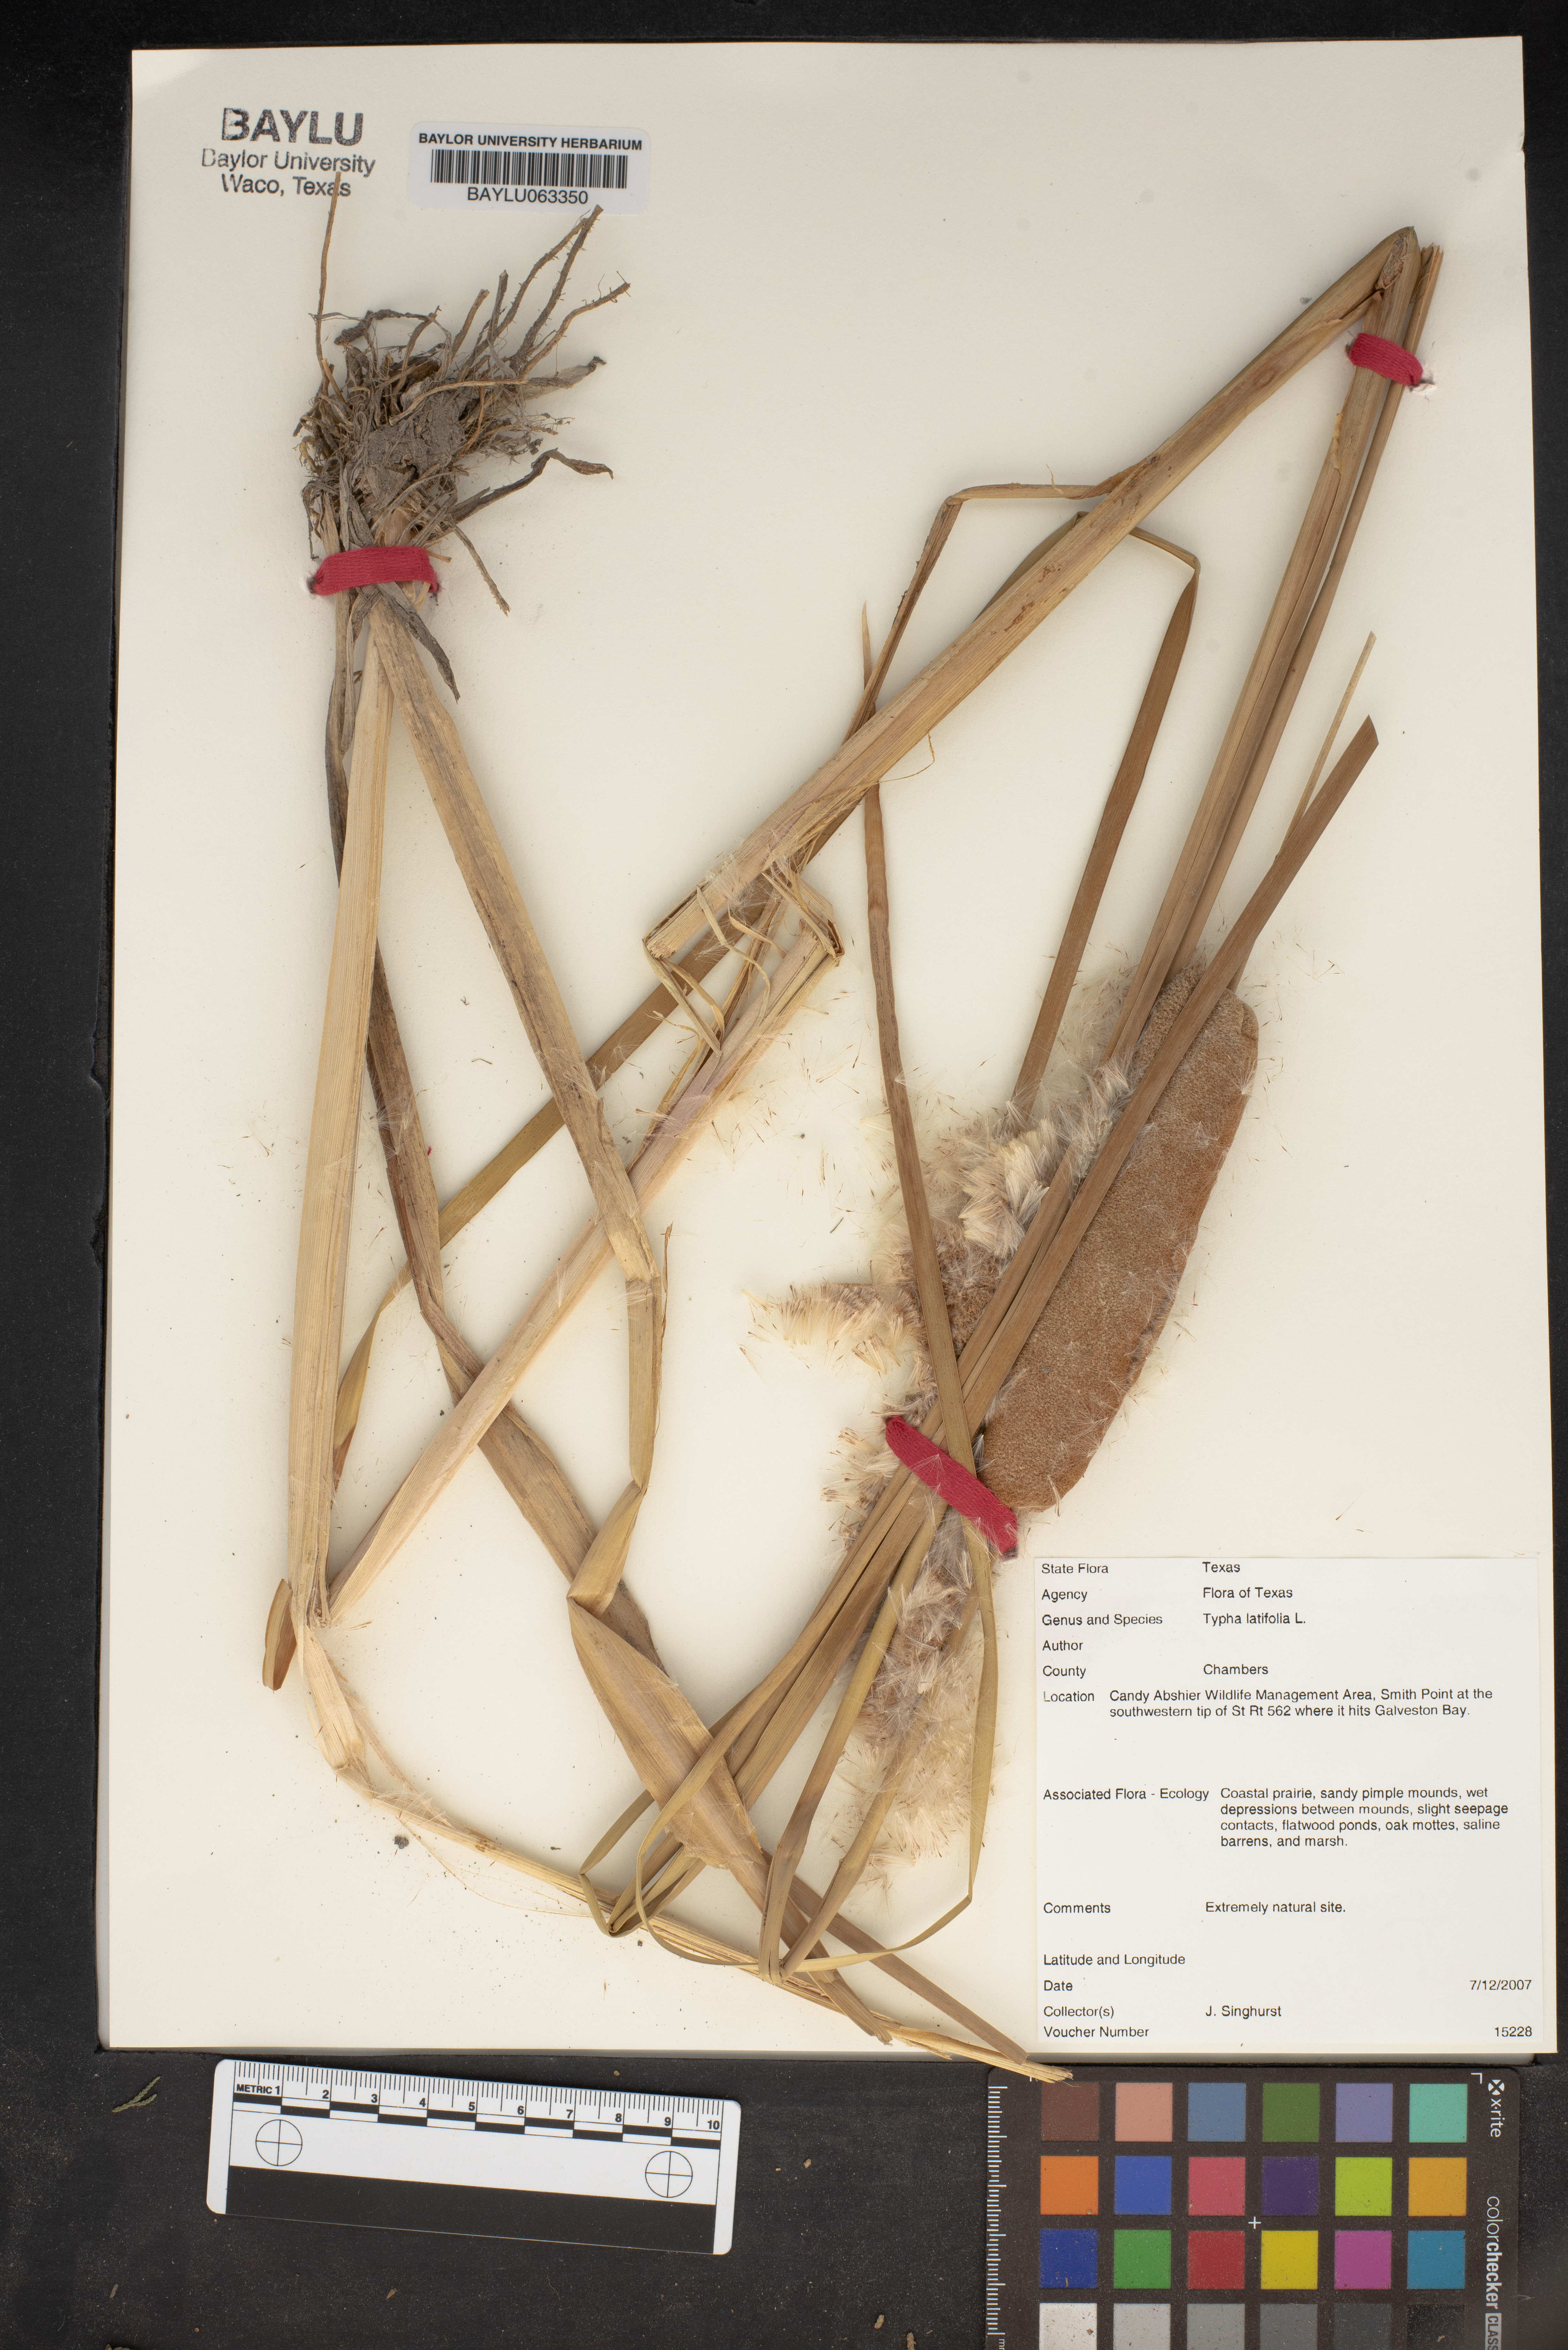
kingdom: Plantae
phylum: Tracheophyta
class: Liliopsida
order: Poales
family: Typhaceae
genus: Typha
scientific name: Typha latifolia
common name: Broadleaf cattail
